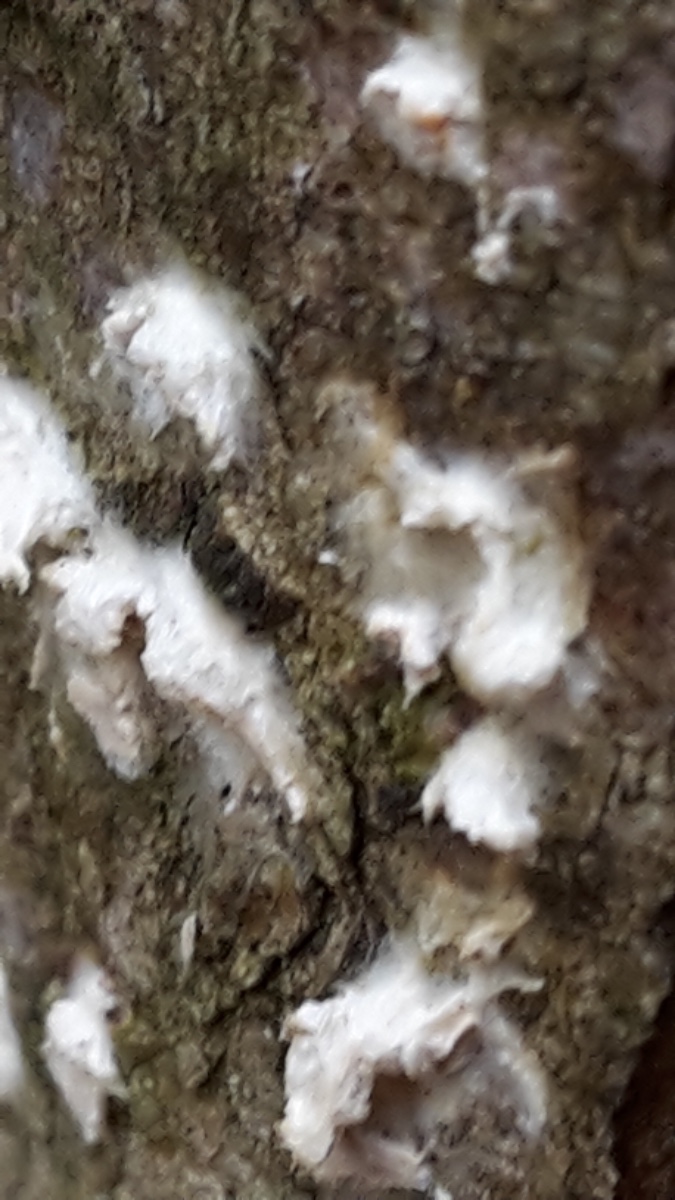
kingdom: Fungi
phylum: Basidiomycota
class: Agaricomycetes
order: Agaricales
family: Physalacriaceae
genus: Cylindrobasidium
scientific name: Cylindrobasidium evolvens
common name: sprækkehinde
